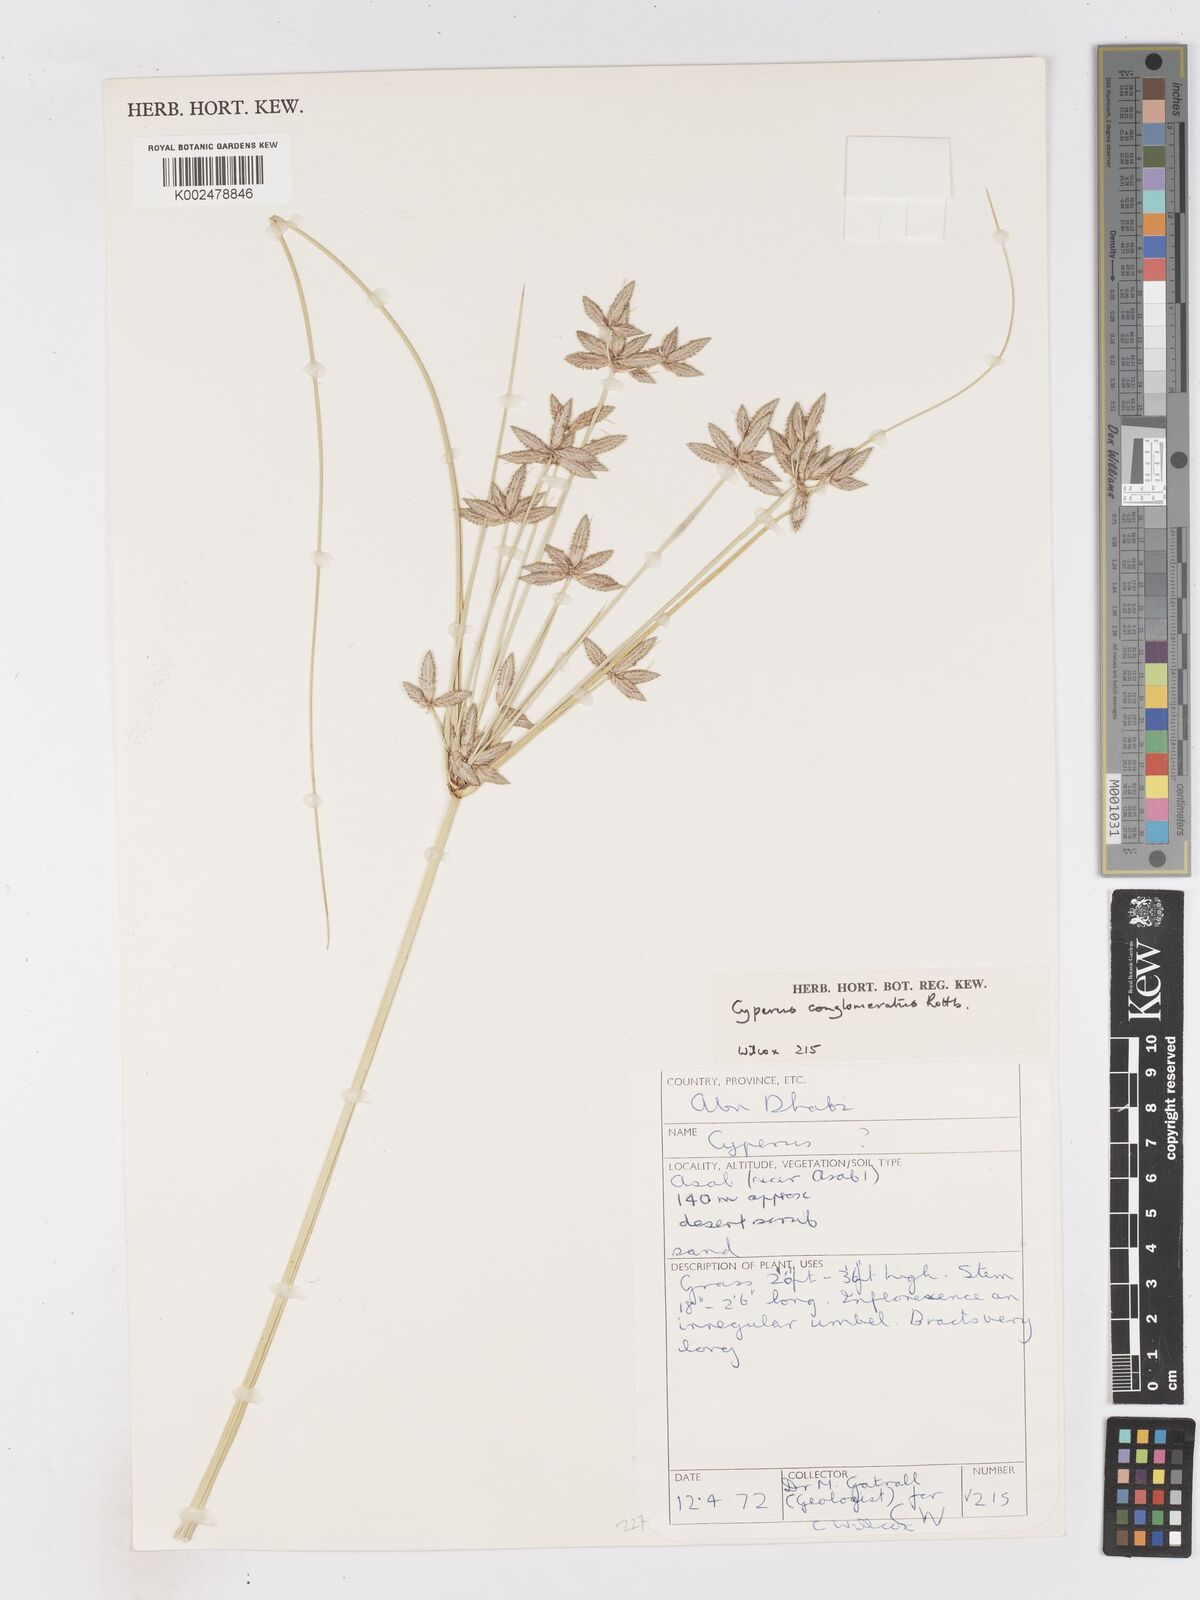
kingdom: Plantae
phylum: Tracheophyta
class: Liliopsida
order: Poales
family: Cyperaceae
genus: Cyperus
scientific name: Cyperus
